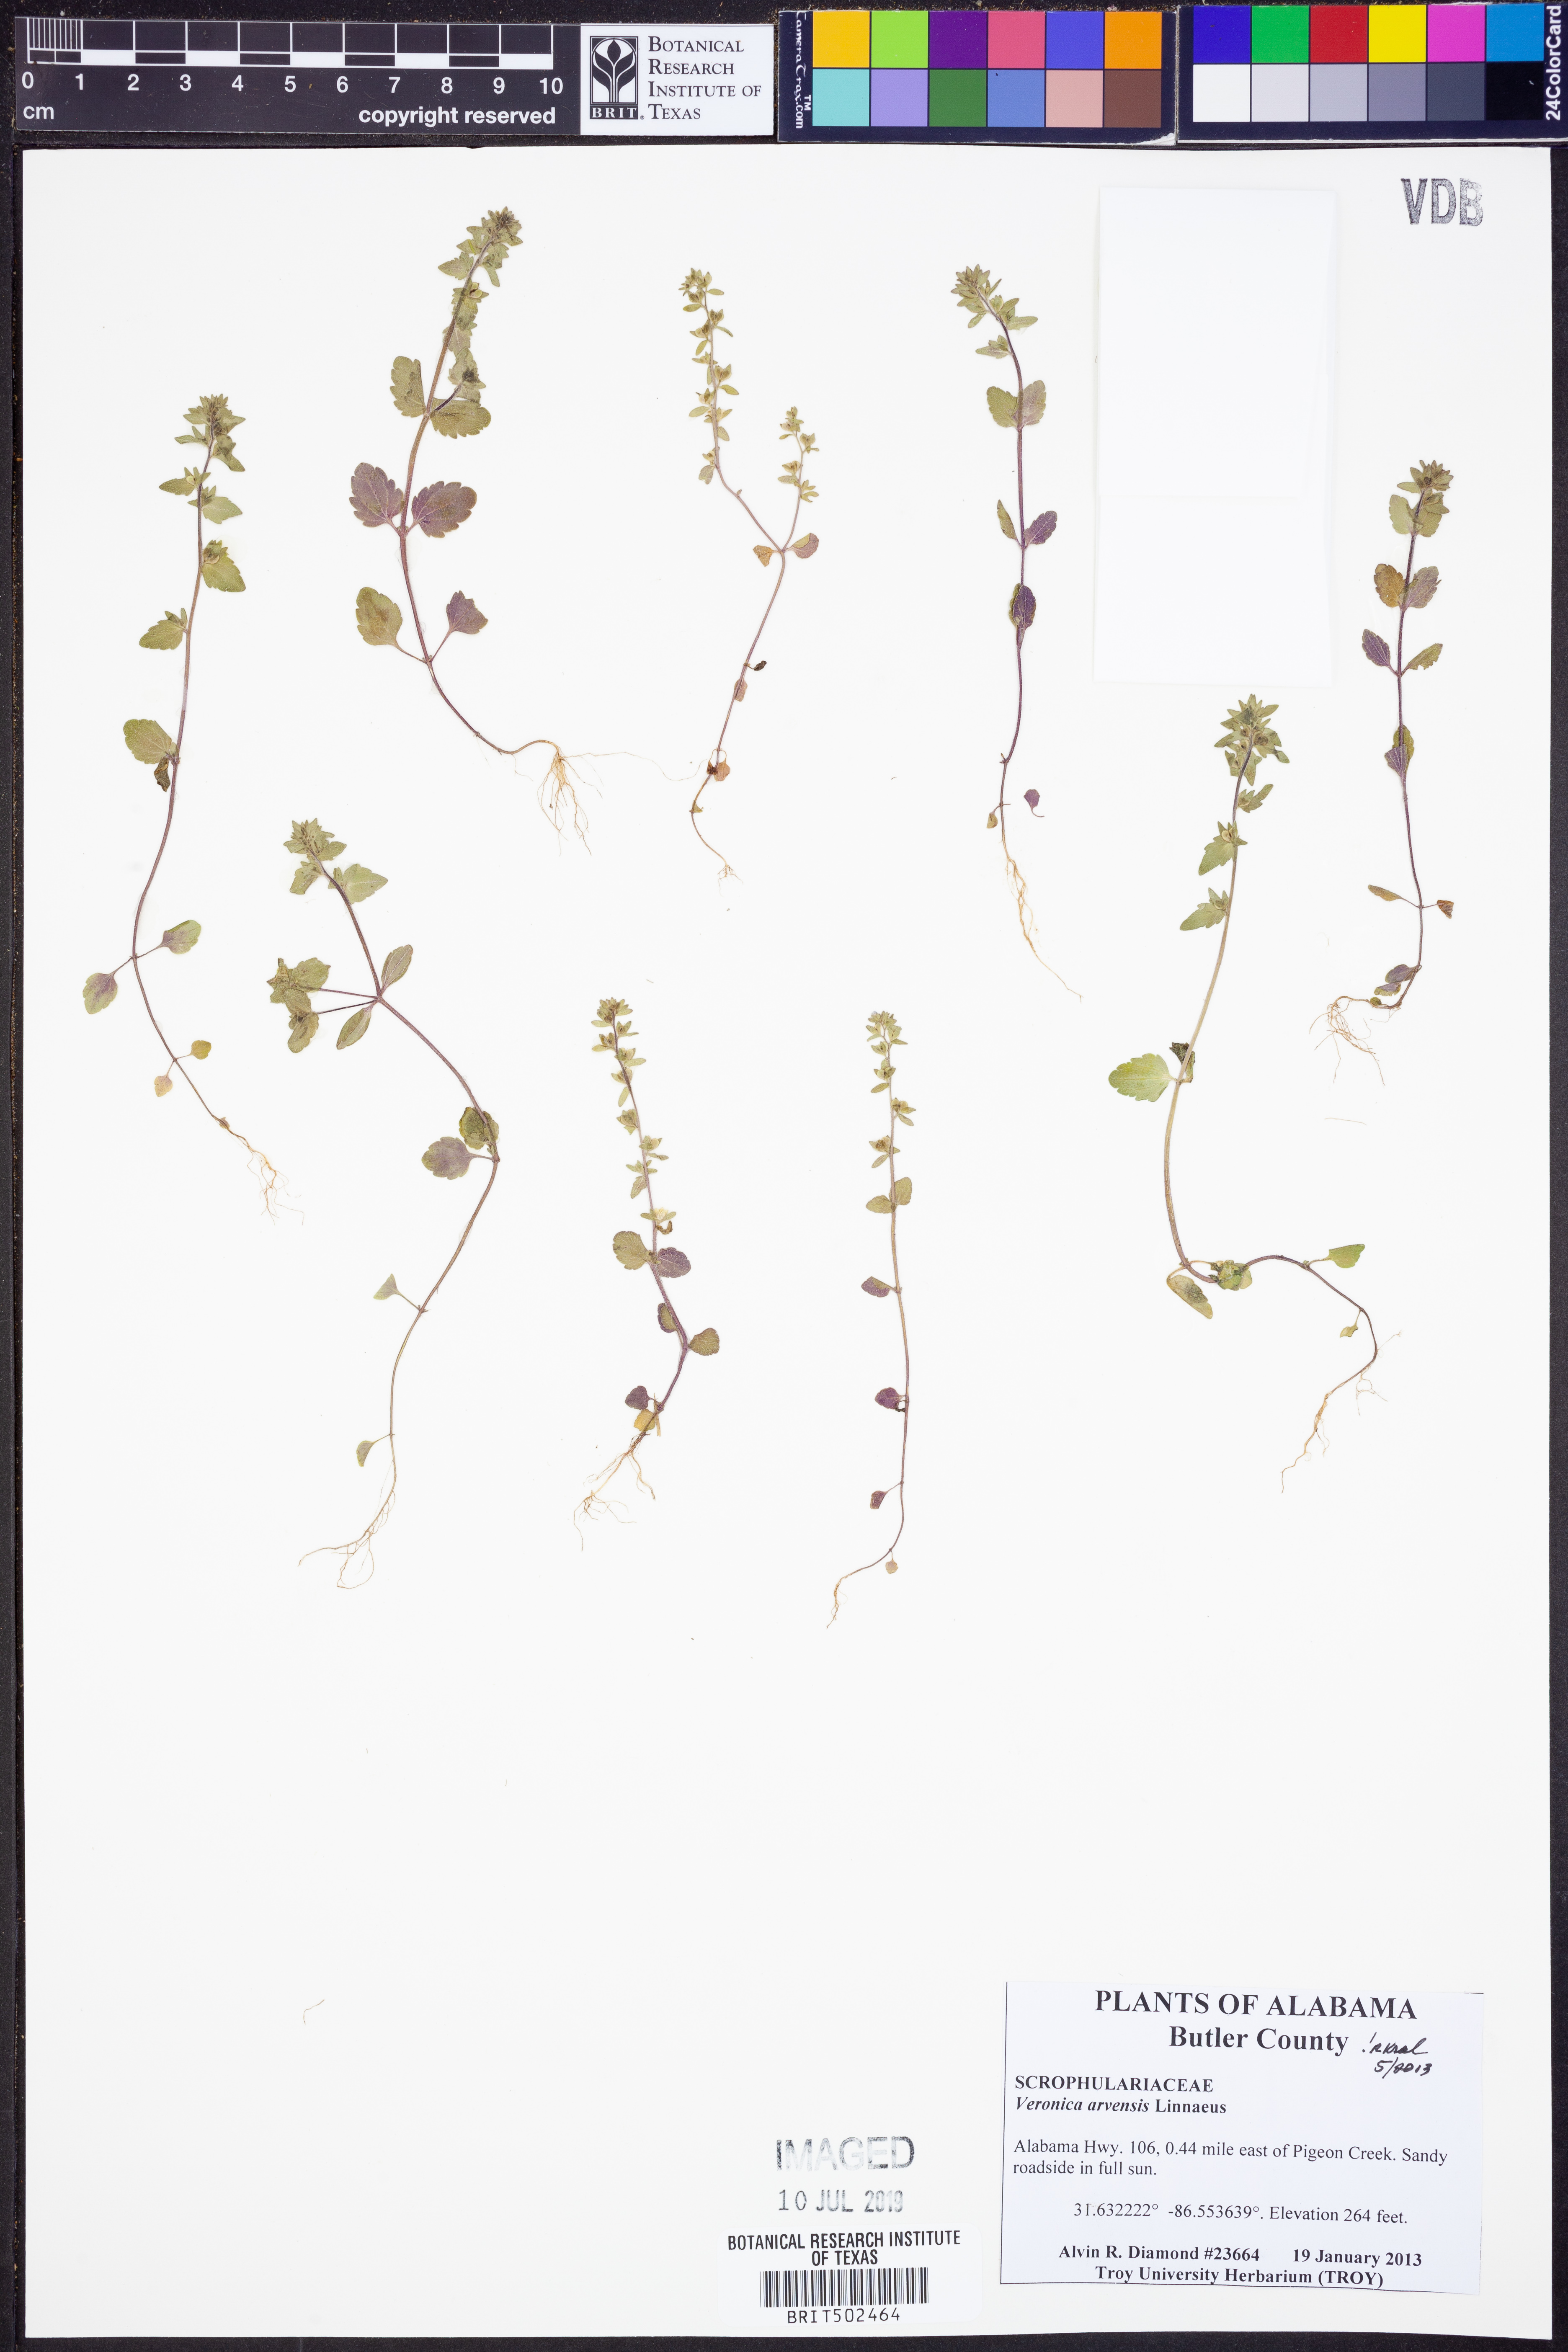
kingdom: Plantae
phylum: Tracheophyta
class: Magnoliopsida
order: Lamiales
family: Plantaginaceae
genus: Veronica
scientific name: Veronica arvensis
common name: Corn speedwell
